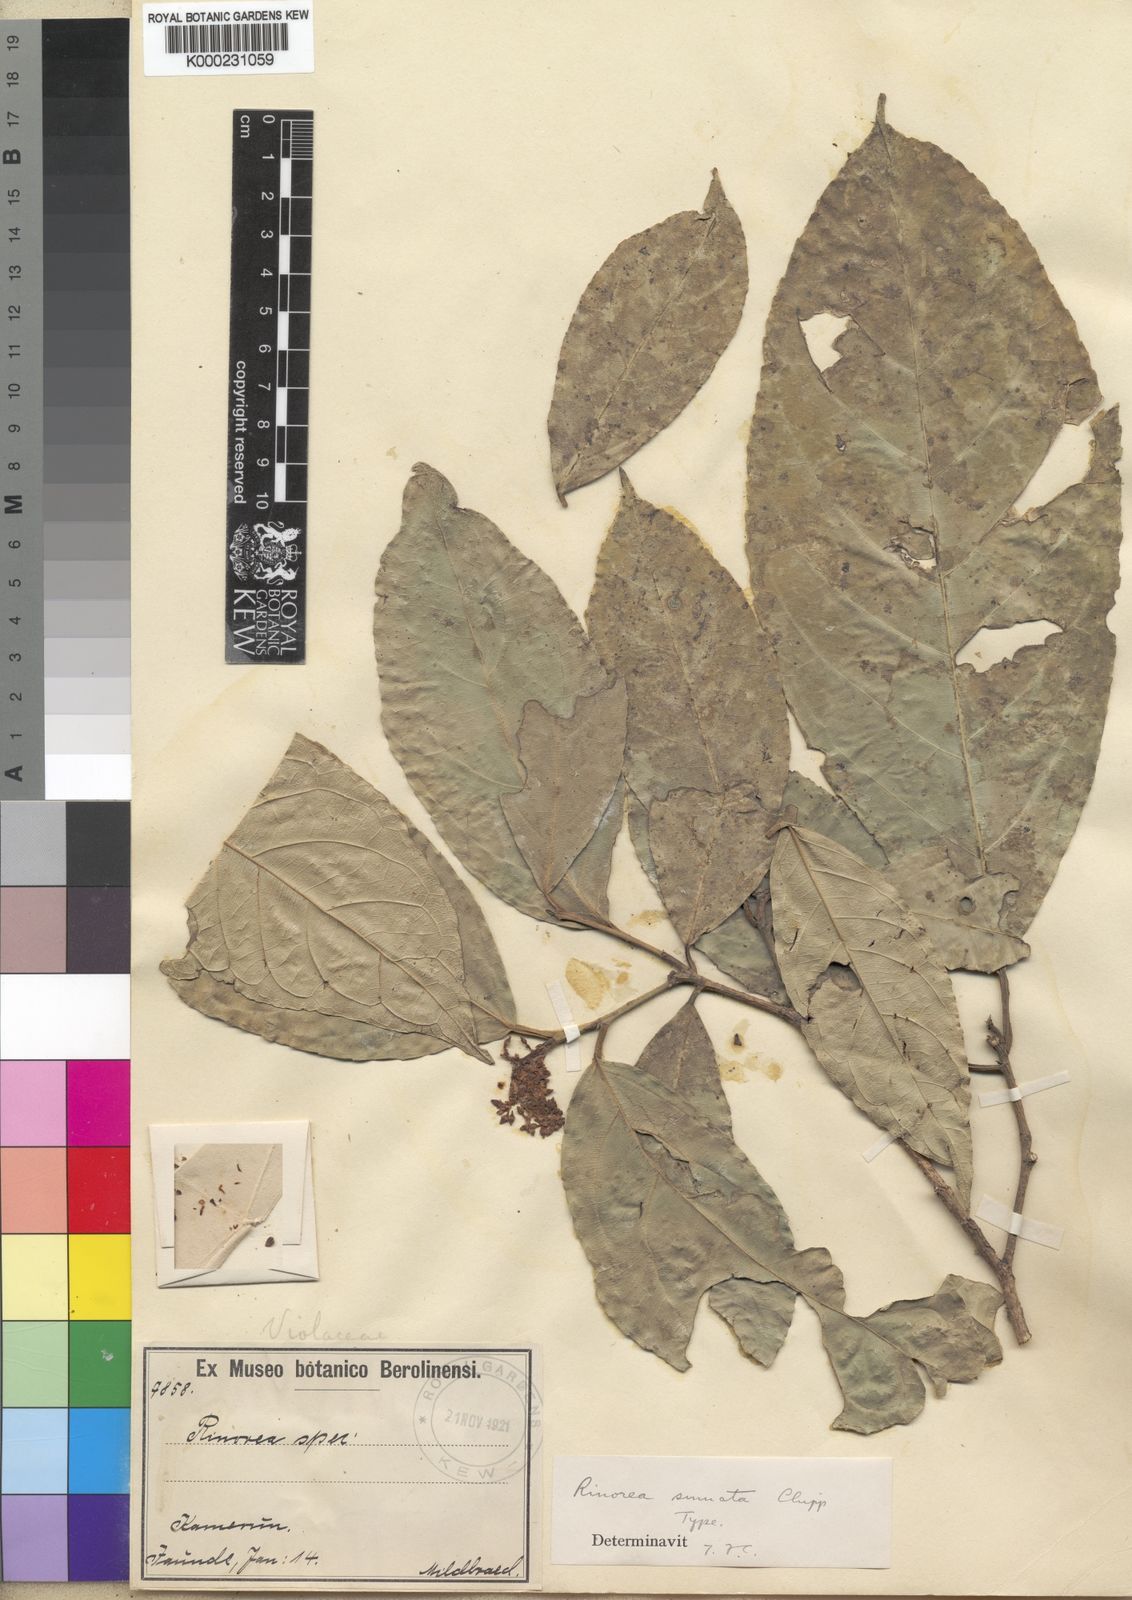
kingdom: Plantae
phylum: Tracheophyta
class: Magnoliopsida
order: Malpighiales
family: Violaceae
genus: Rinorea
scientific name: Rinorea sinuata
